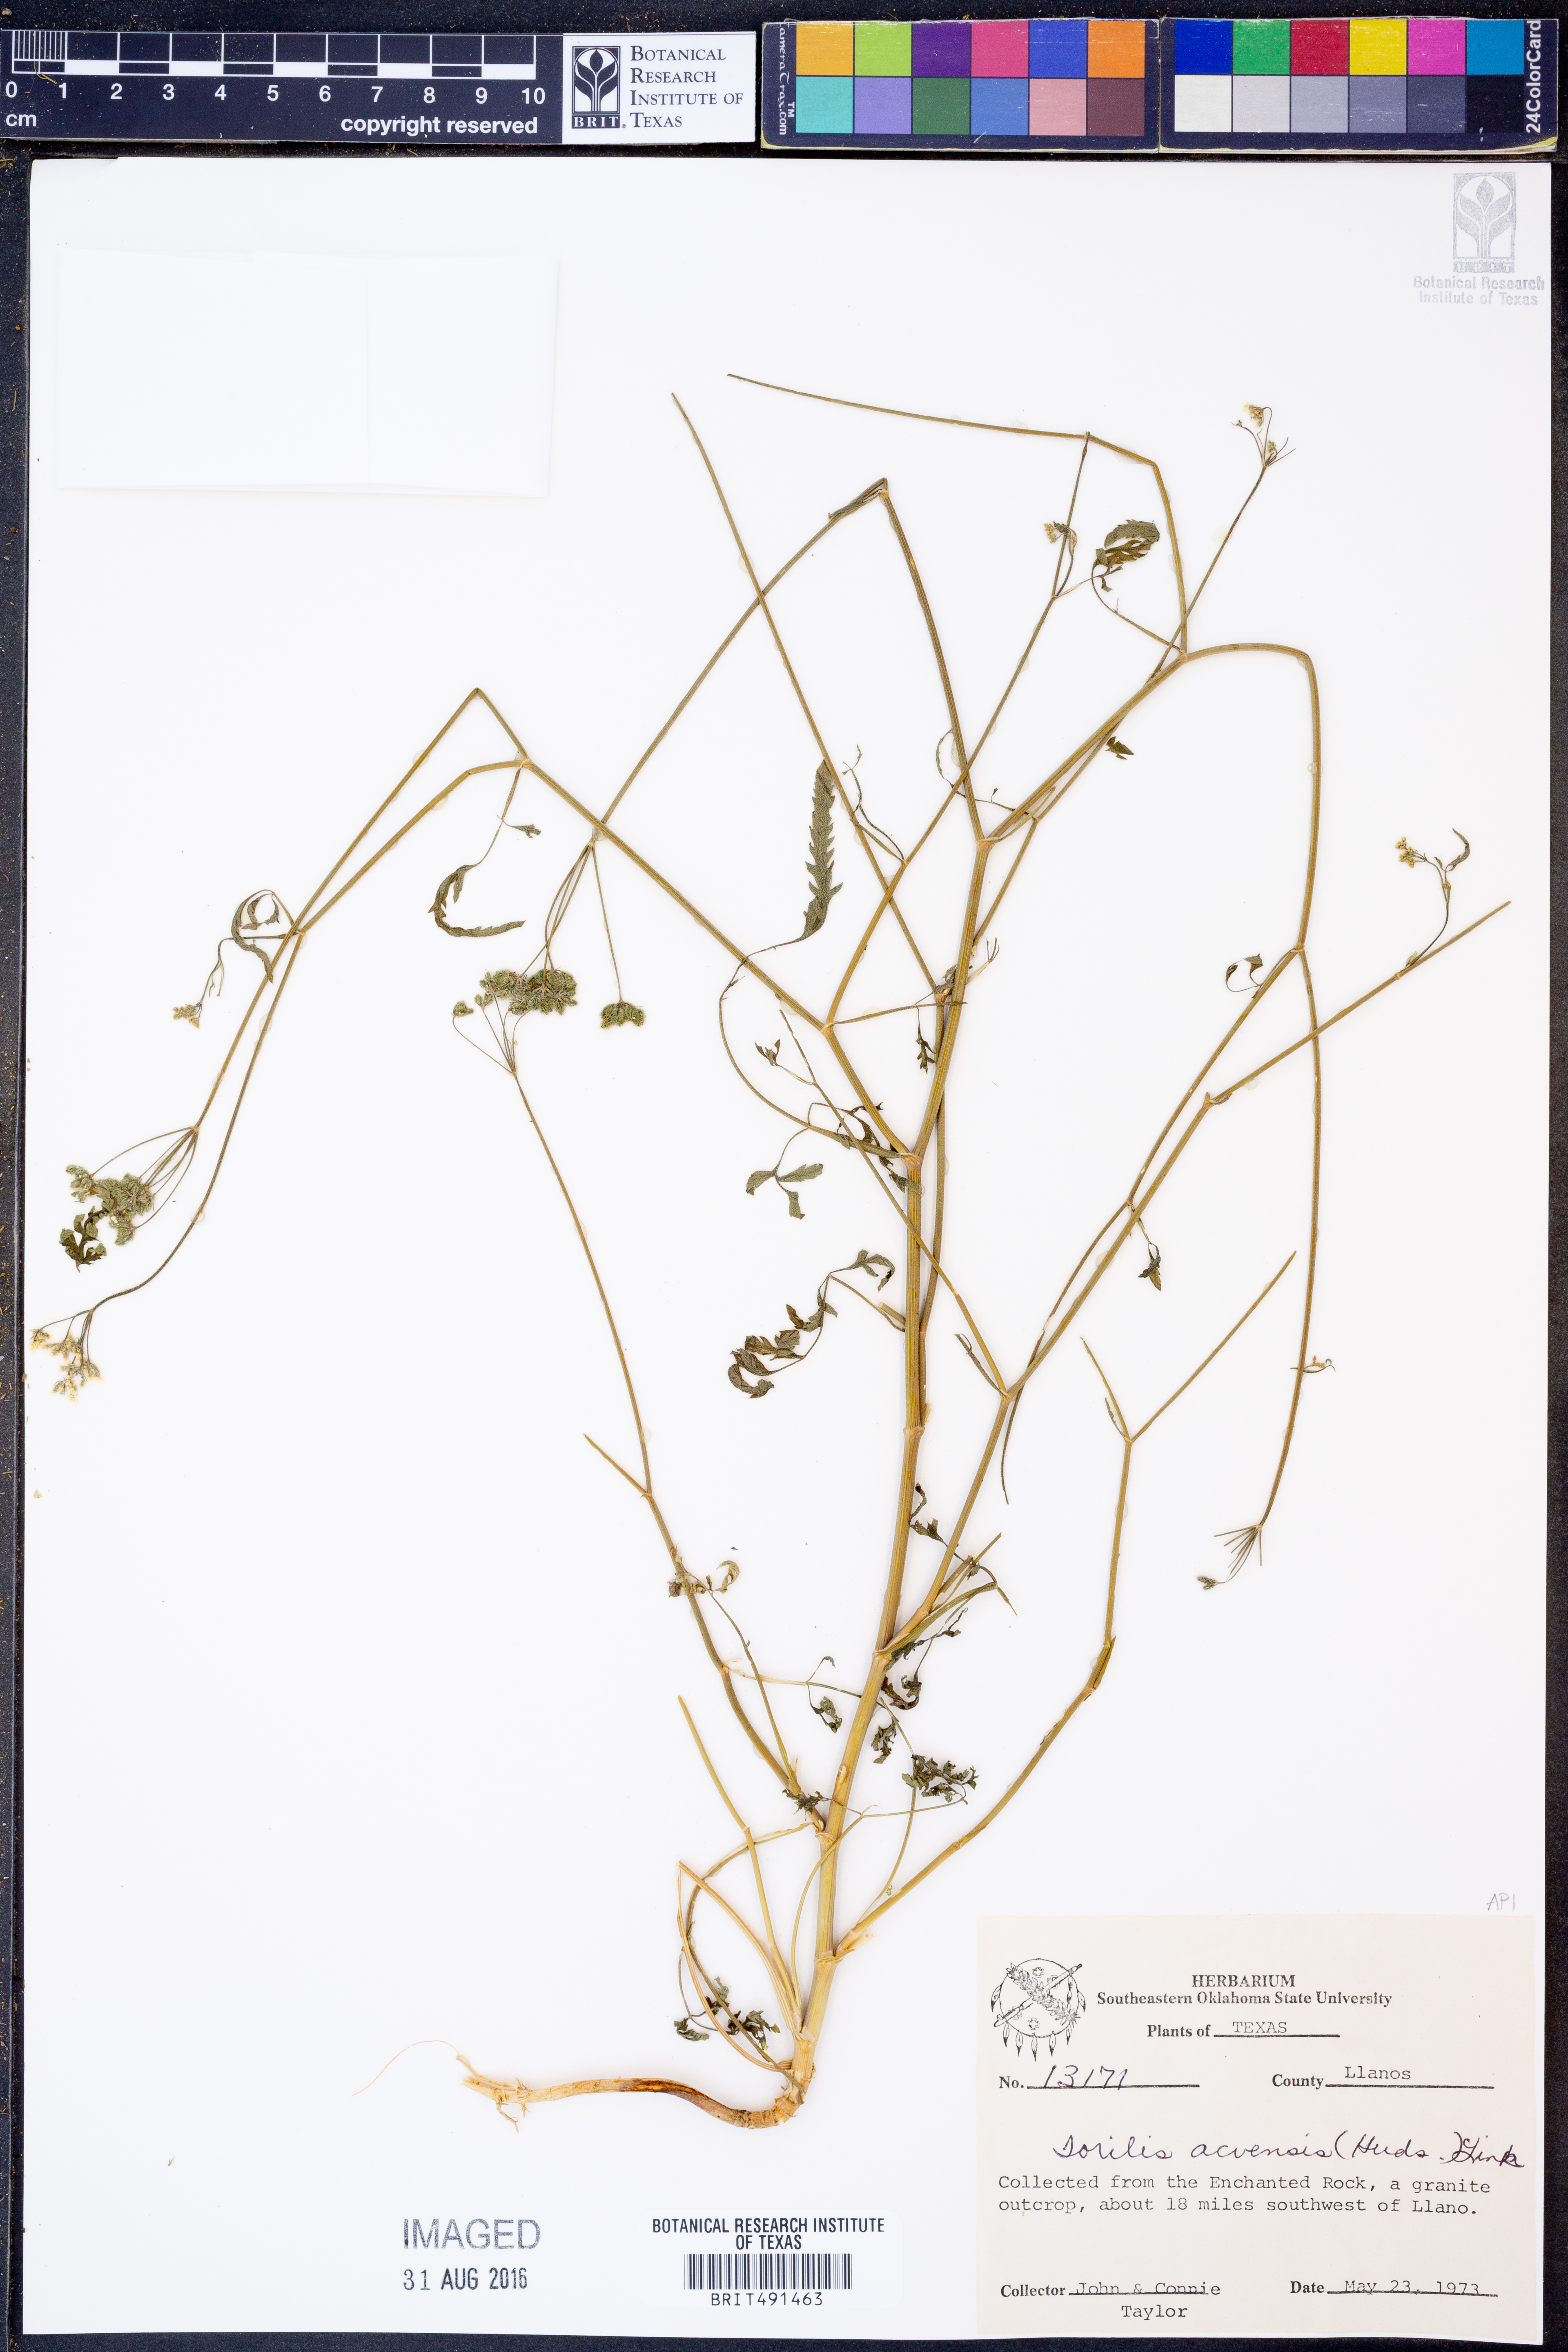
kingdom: Plantae
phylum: Tracheophyta
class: Magnoliopsida
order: Apiales
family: Apiaceae
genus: Torilis
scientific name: Torilis arvensis
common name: Spreading hedge-parsley
